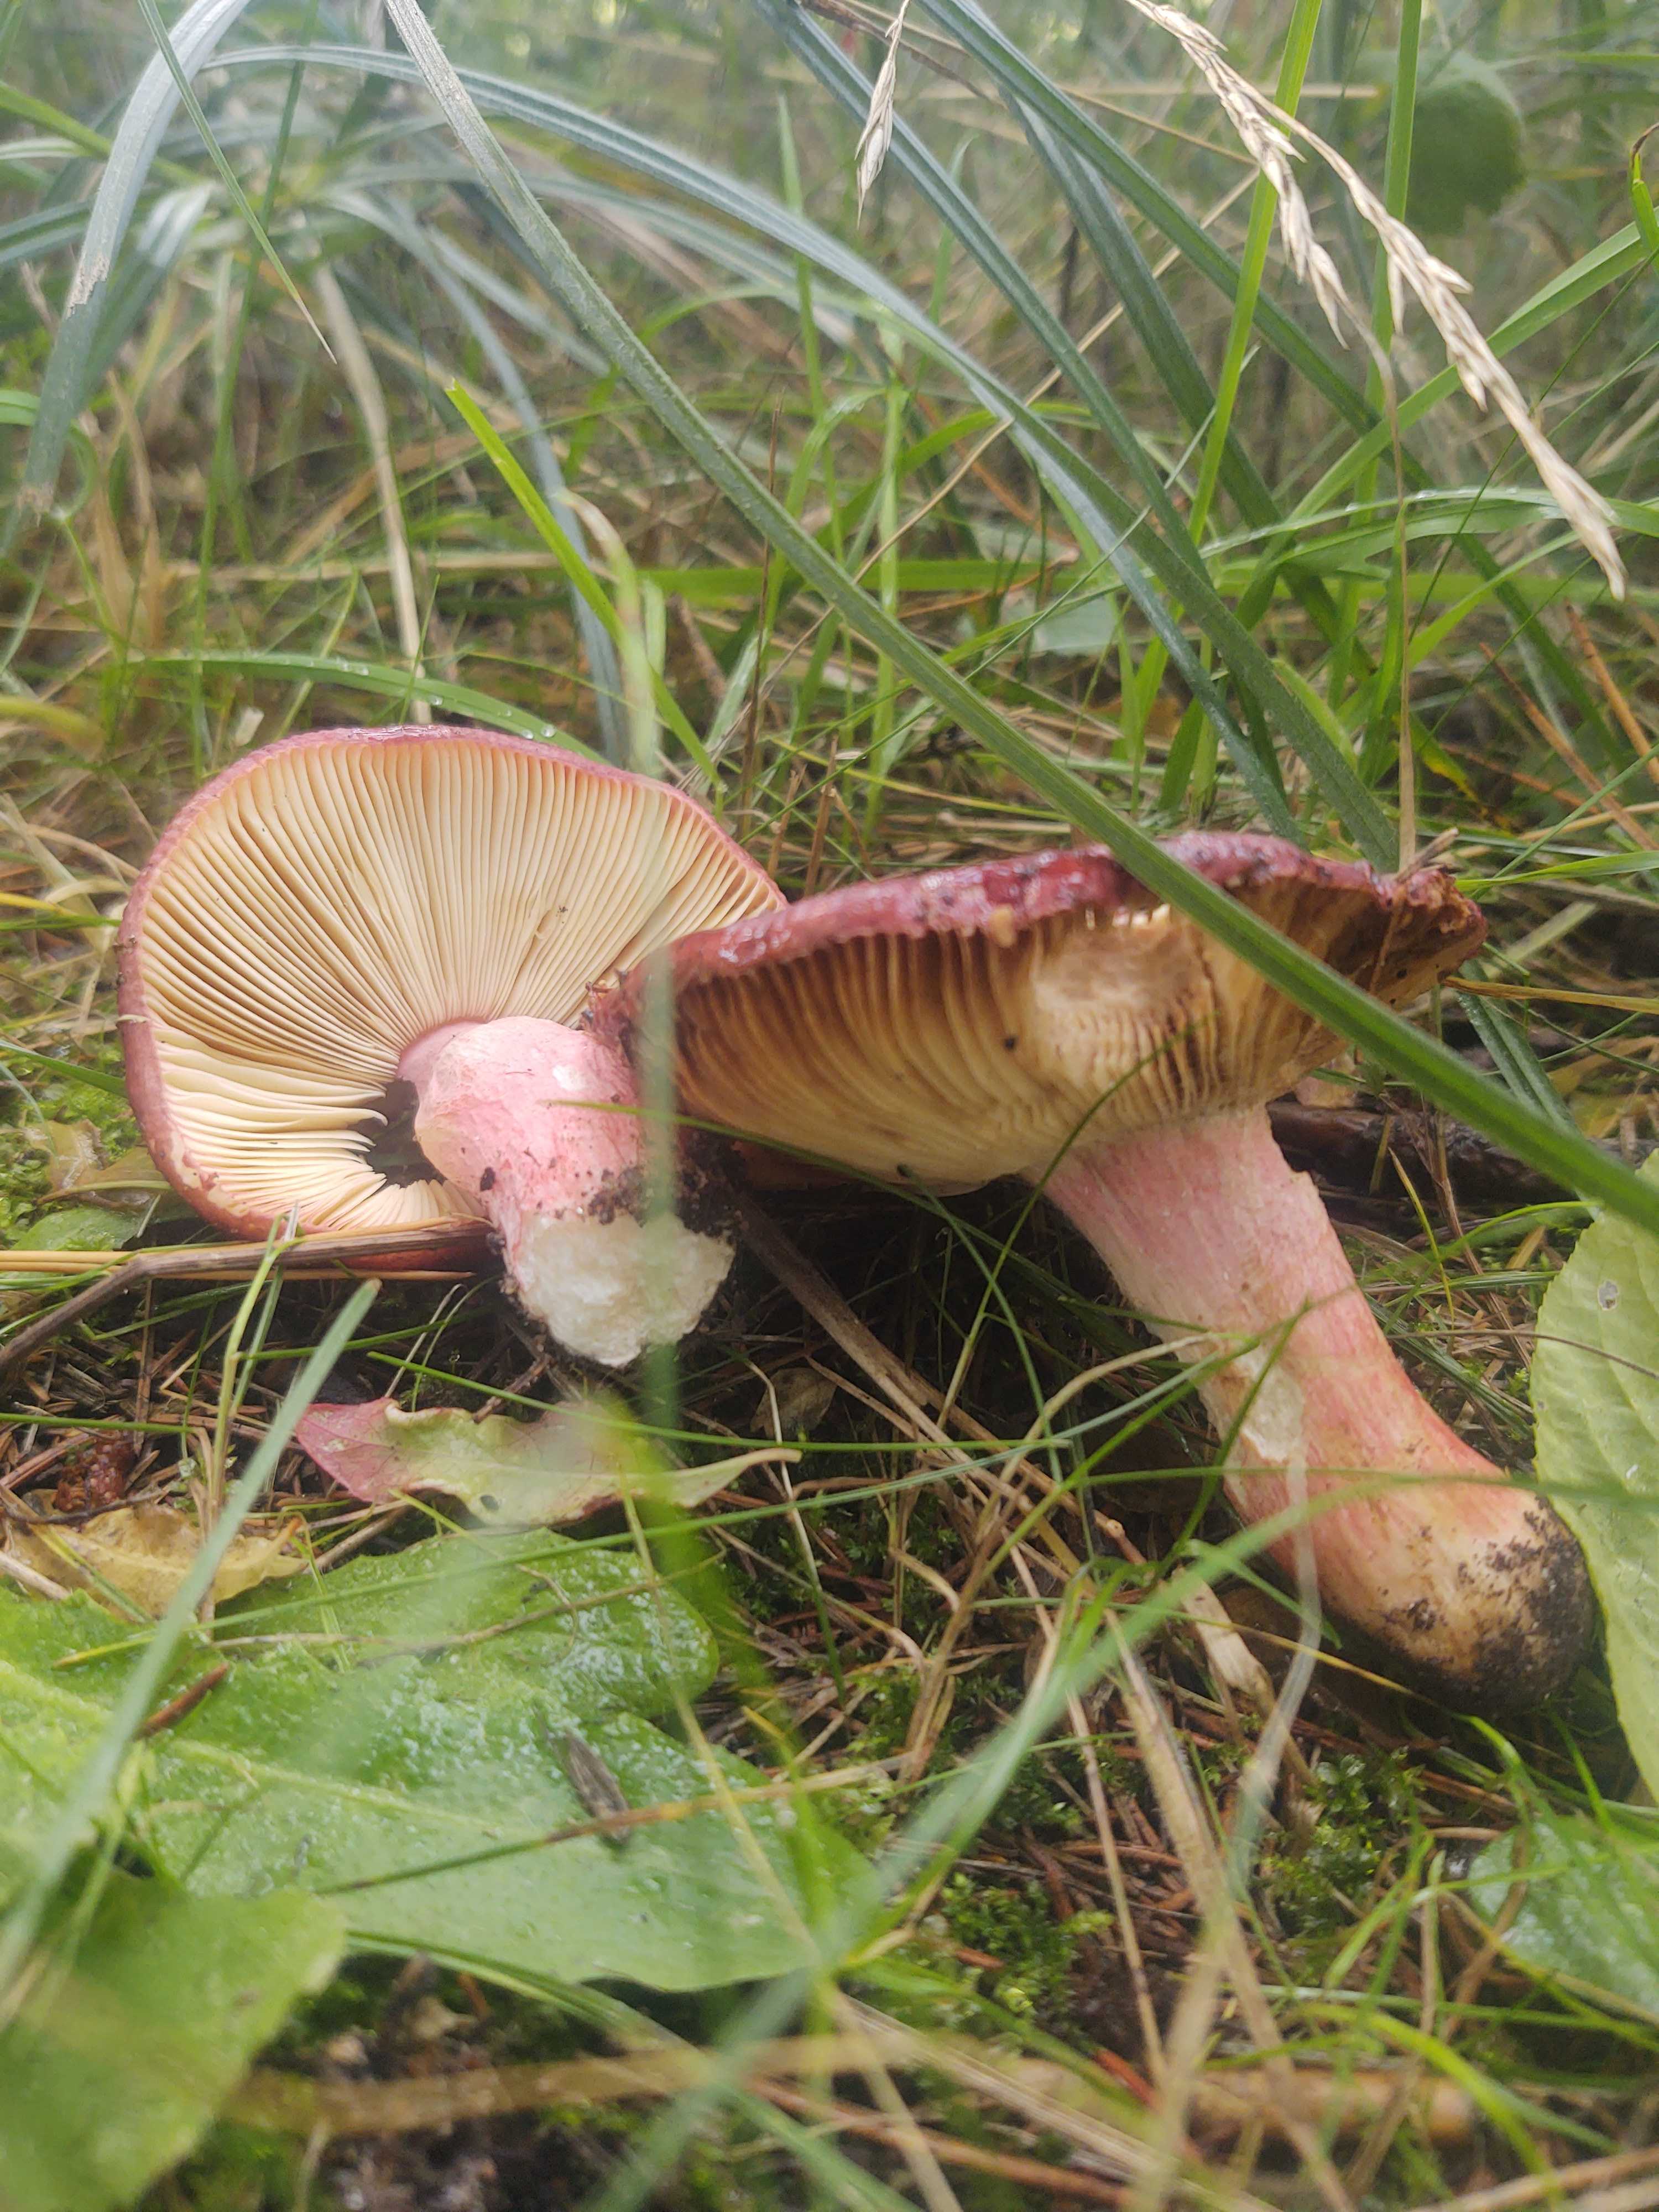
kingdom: Fungi
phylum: Basidiomycota
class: Agaricomycetes
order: Russulales
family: Russulaceae
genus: Russula
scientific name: Russula xerampelina
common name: hummer-skørhat
